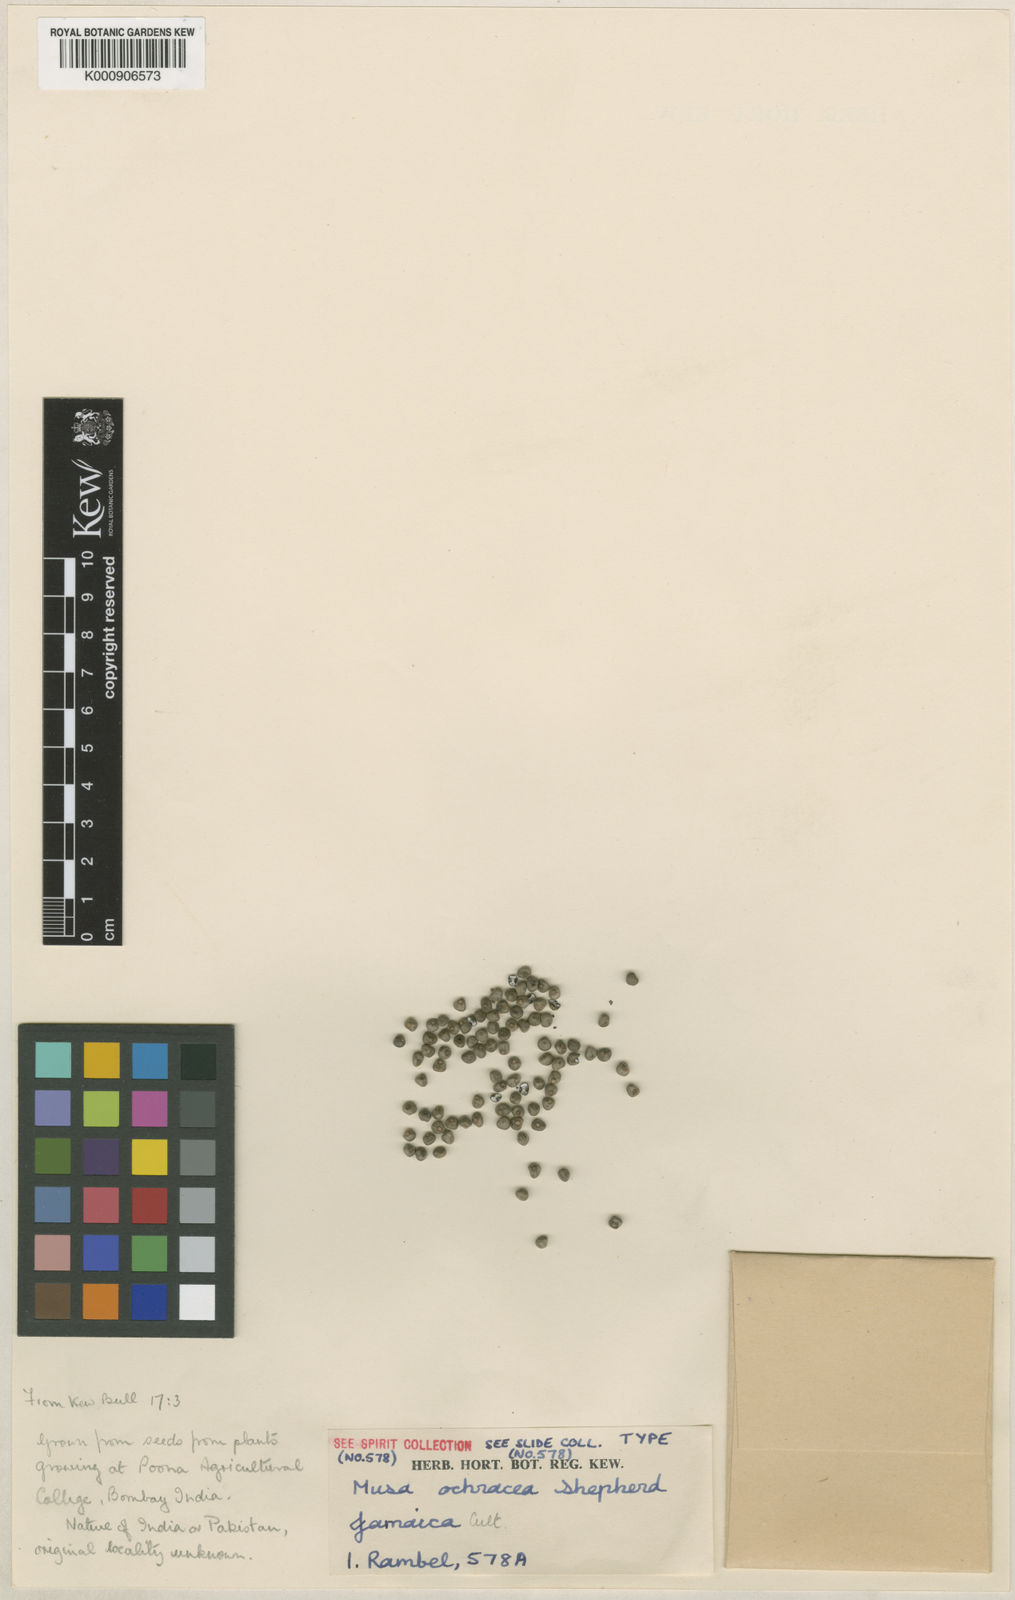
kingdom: Plantae
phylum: Tracheophyta
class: Liliopsida
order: Zingiberales
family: Musaceae
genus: Musa
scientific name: Musa ochracea
